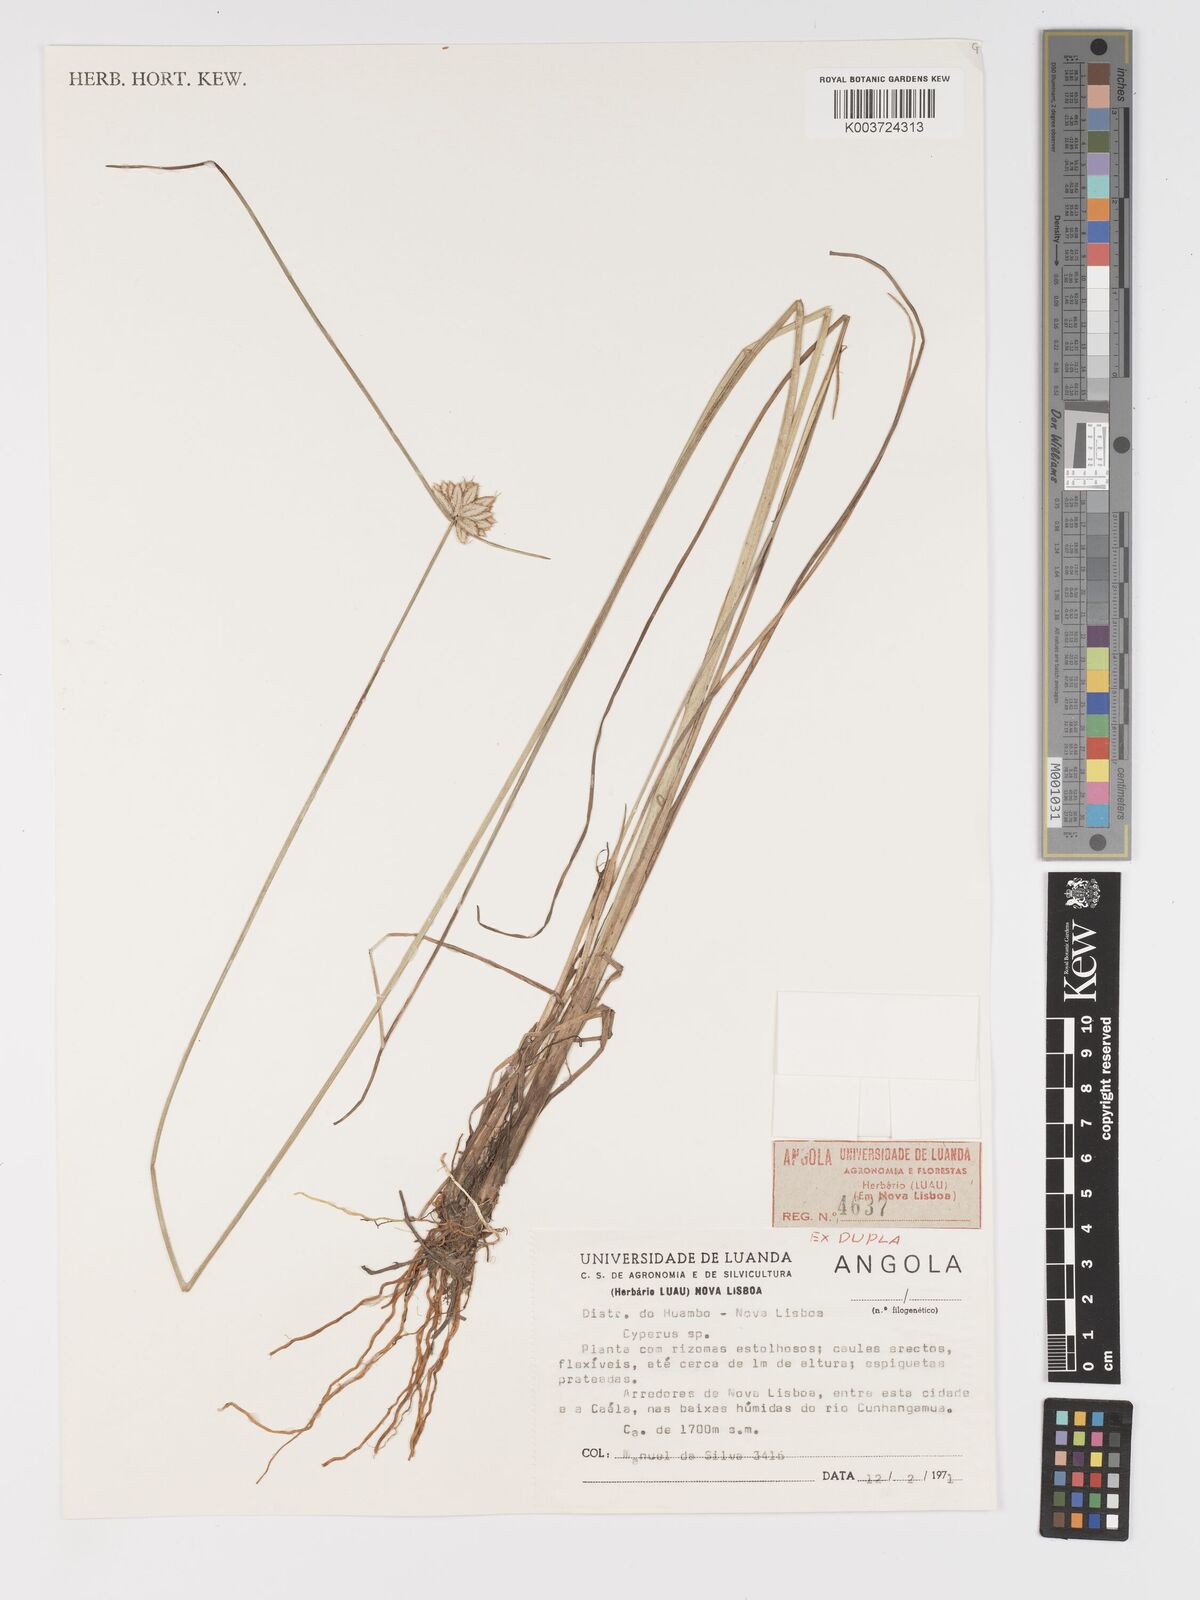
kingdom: Plantae
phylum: Tracheophyta
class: Liliopsida
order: Poales
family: Cyperaceae
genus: Cyperus
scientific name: Cyperus
